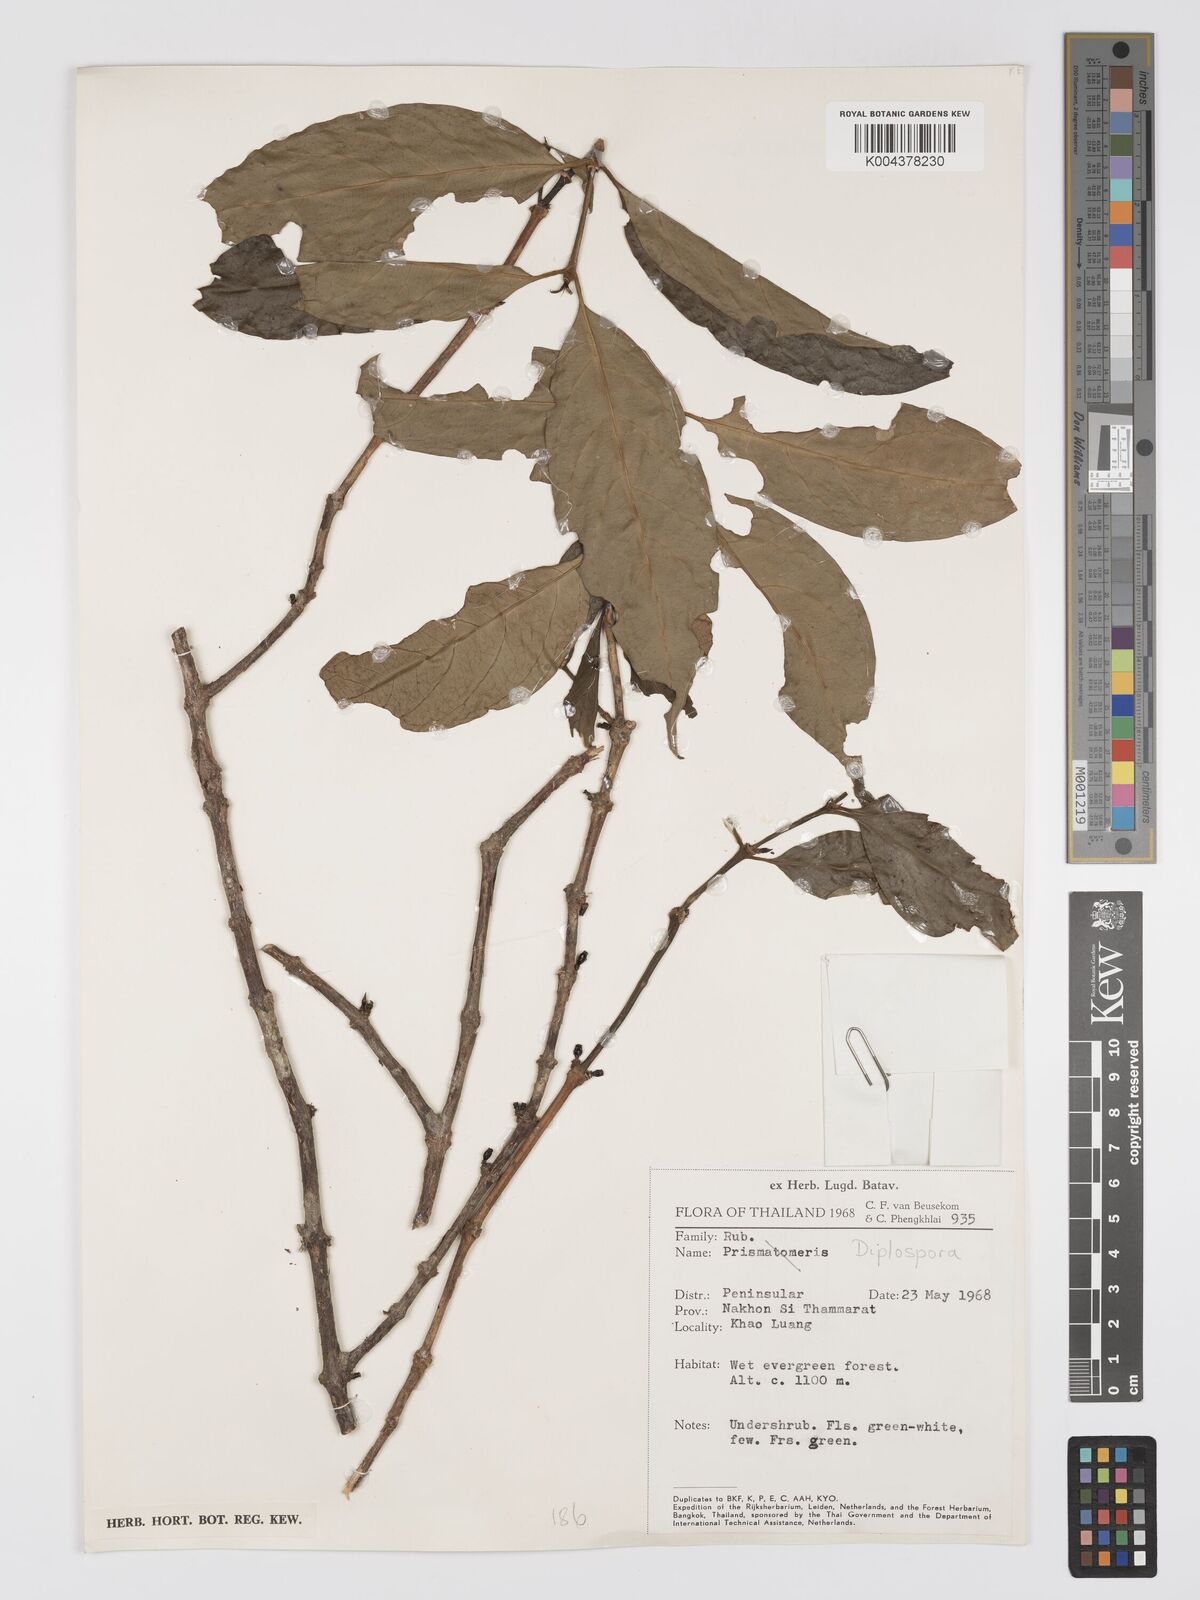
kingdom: Plantae
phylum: Tracheophyta
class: Magnoliopsida
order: Gentianales
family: Rubiaceae
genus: Diplospora
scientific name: Diplospora
